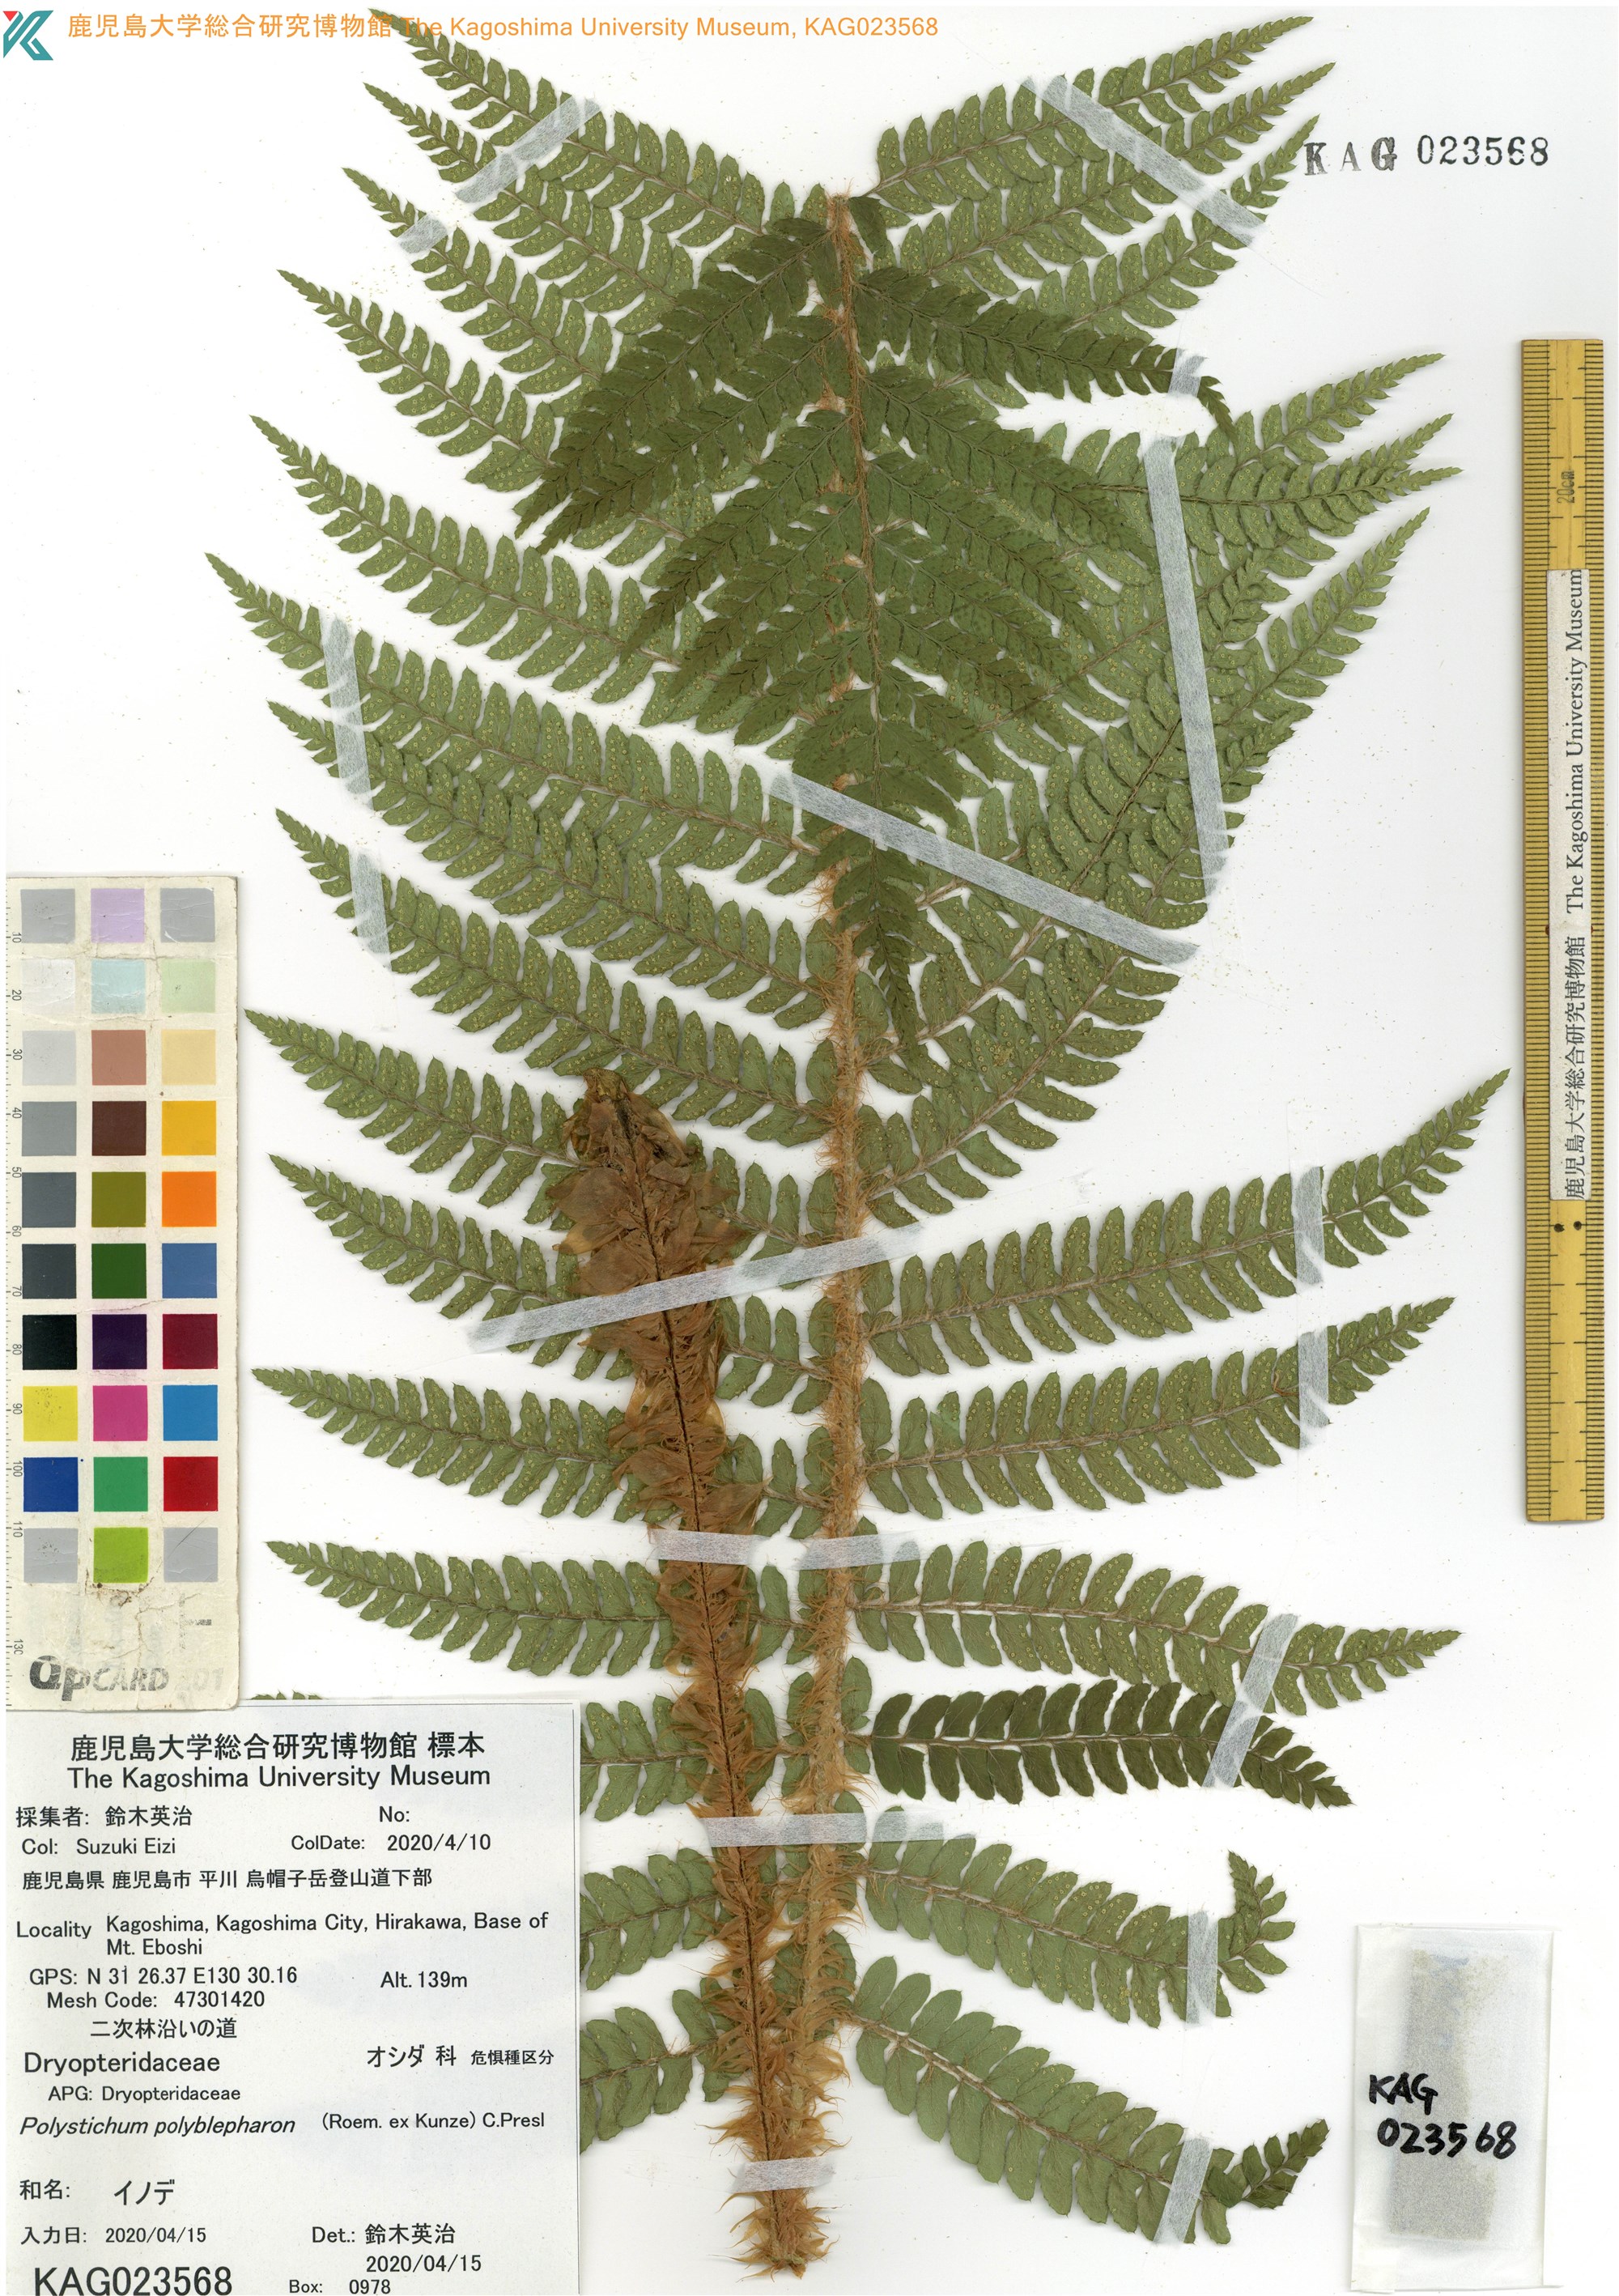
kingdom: Plantae
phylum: Tracheophyta
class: Polypodiopsida
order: Polypodiales
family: Dryopteridaceae
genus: Polystichum
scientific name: Polystichum polyblepharon
